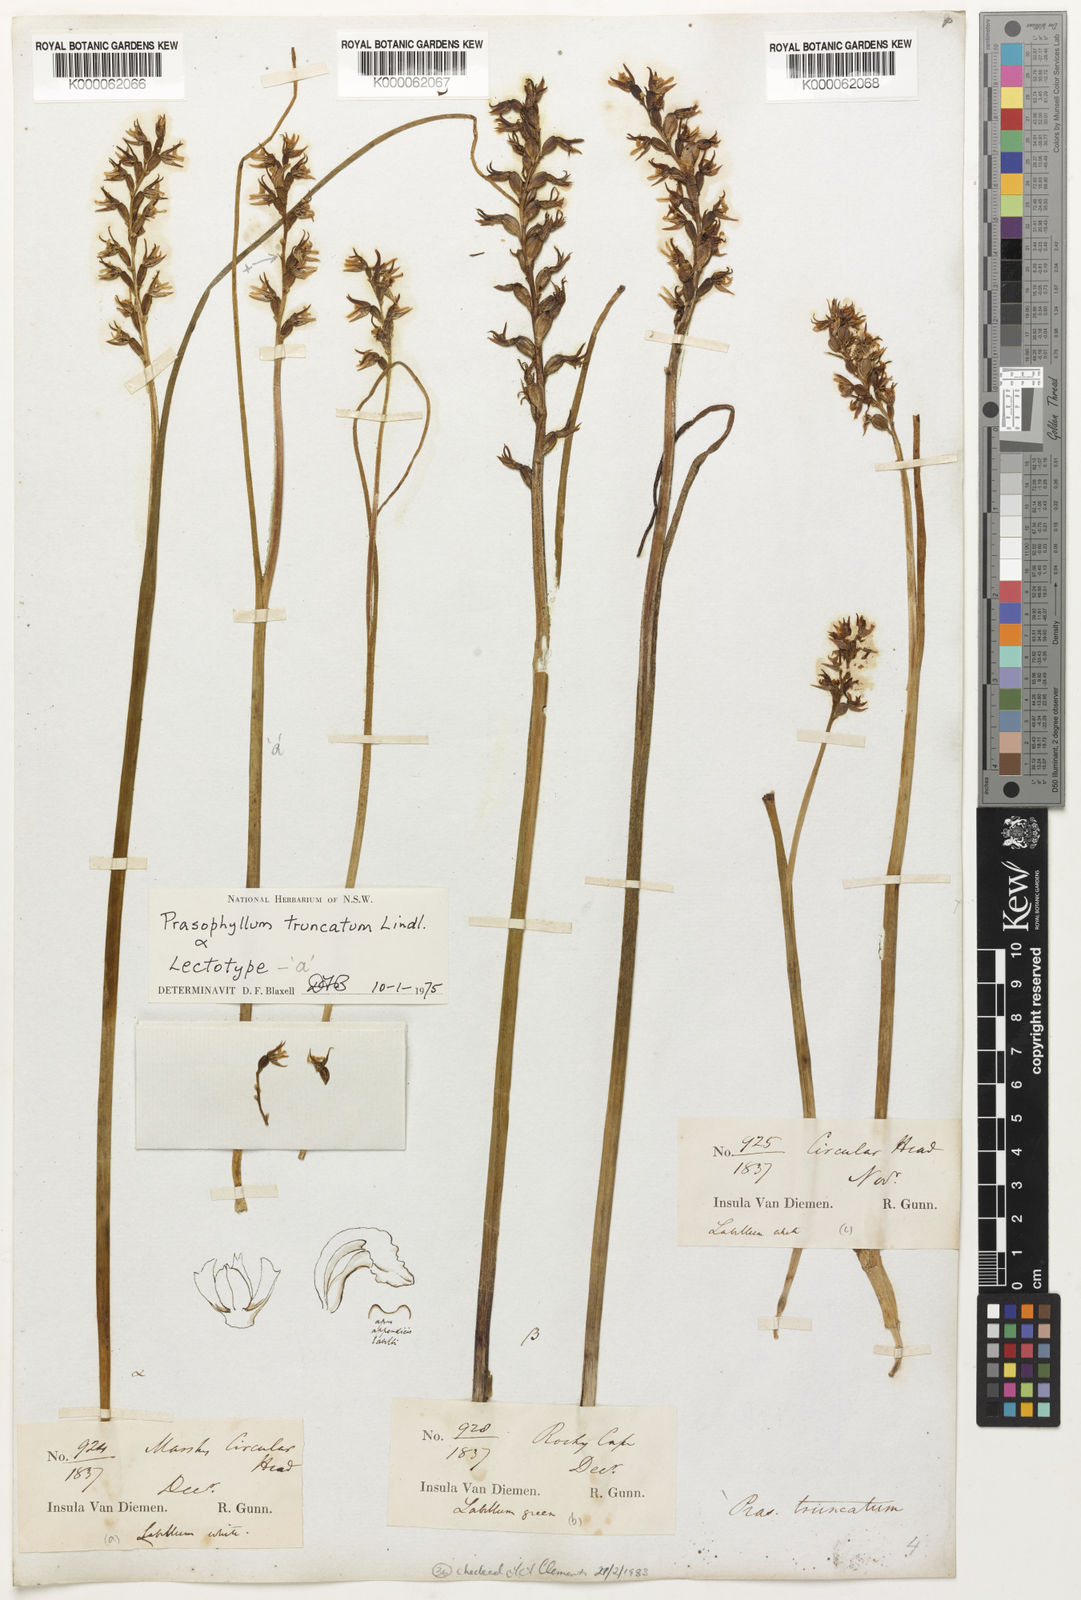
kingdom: Plantae
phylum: Tracheophyta
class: Liliopsida
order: Asparagales
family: Orchidaceae
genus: Prasophyllum
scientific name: Prasophyllum truncatum
